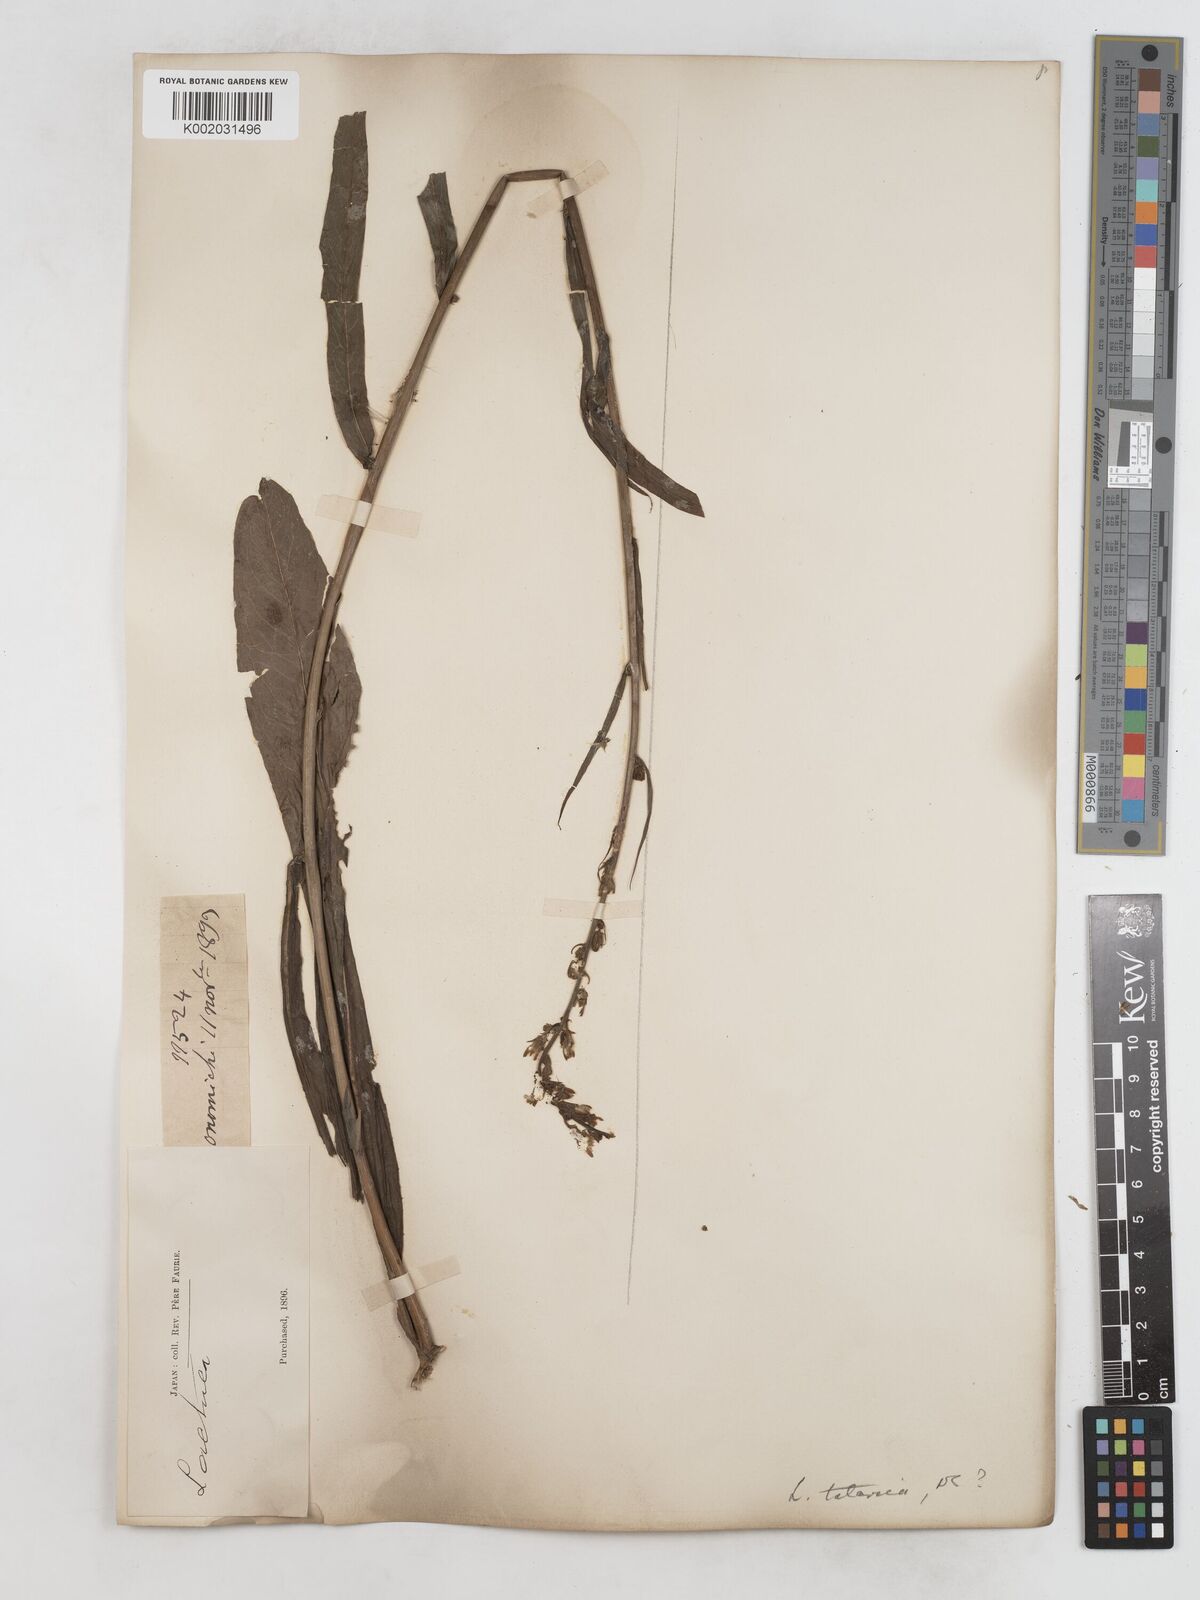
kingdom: Plantae
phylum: Tracheophyta
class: Magnoliopsida
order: Asterales
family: Asteraceae
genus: Lactuca
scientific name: Lactuca
